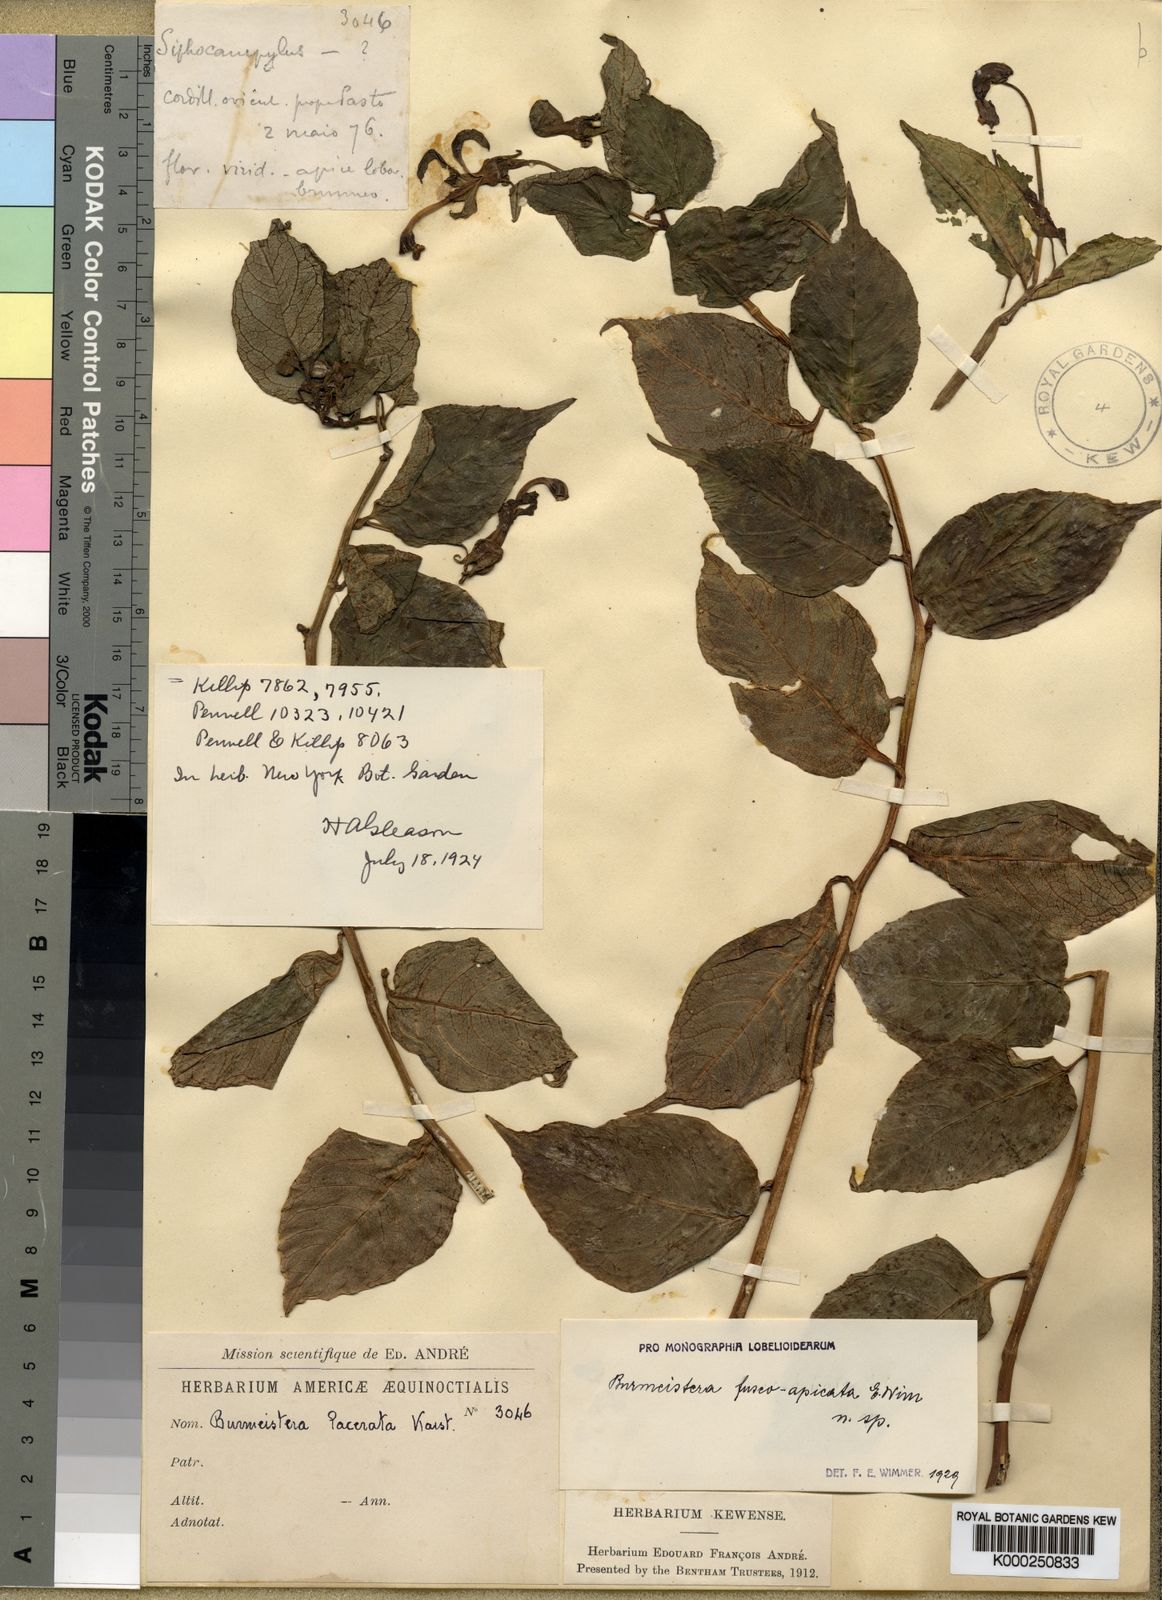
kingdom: Plantae
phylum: Tracheophyta
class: Magnoliopsida
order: Asterales
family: Campanulaceae
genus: Burmeistera
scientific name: Burmeistera
